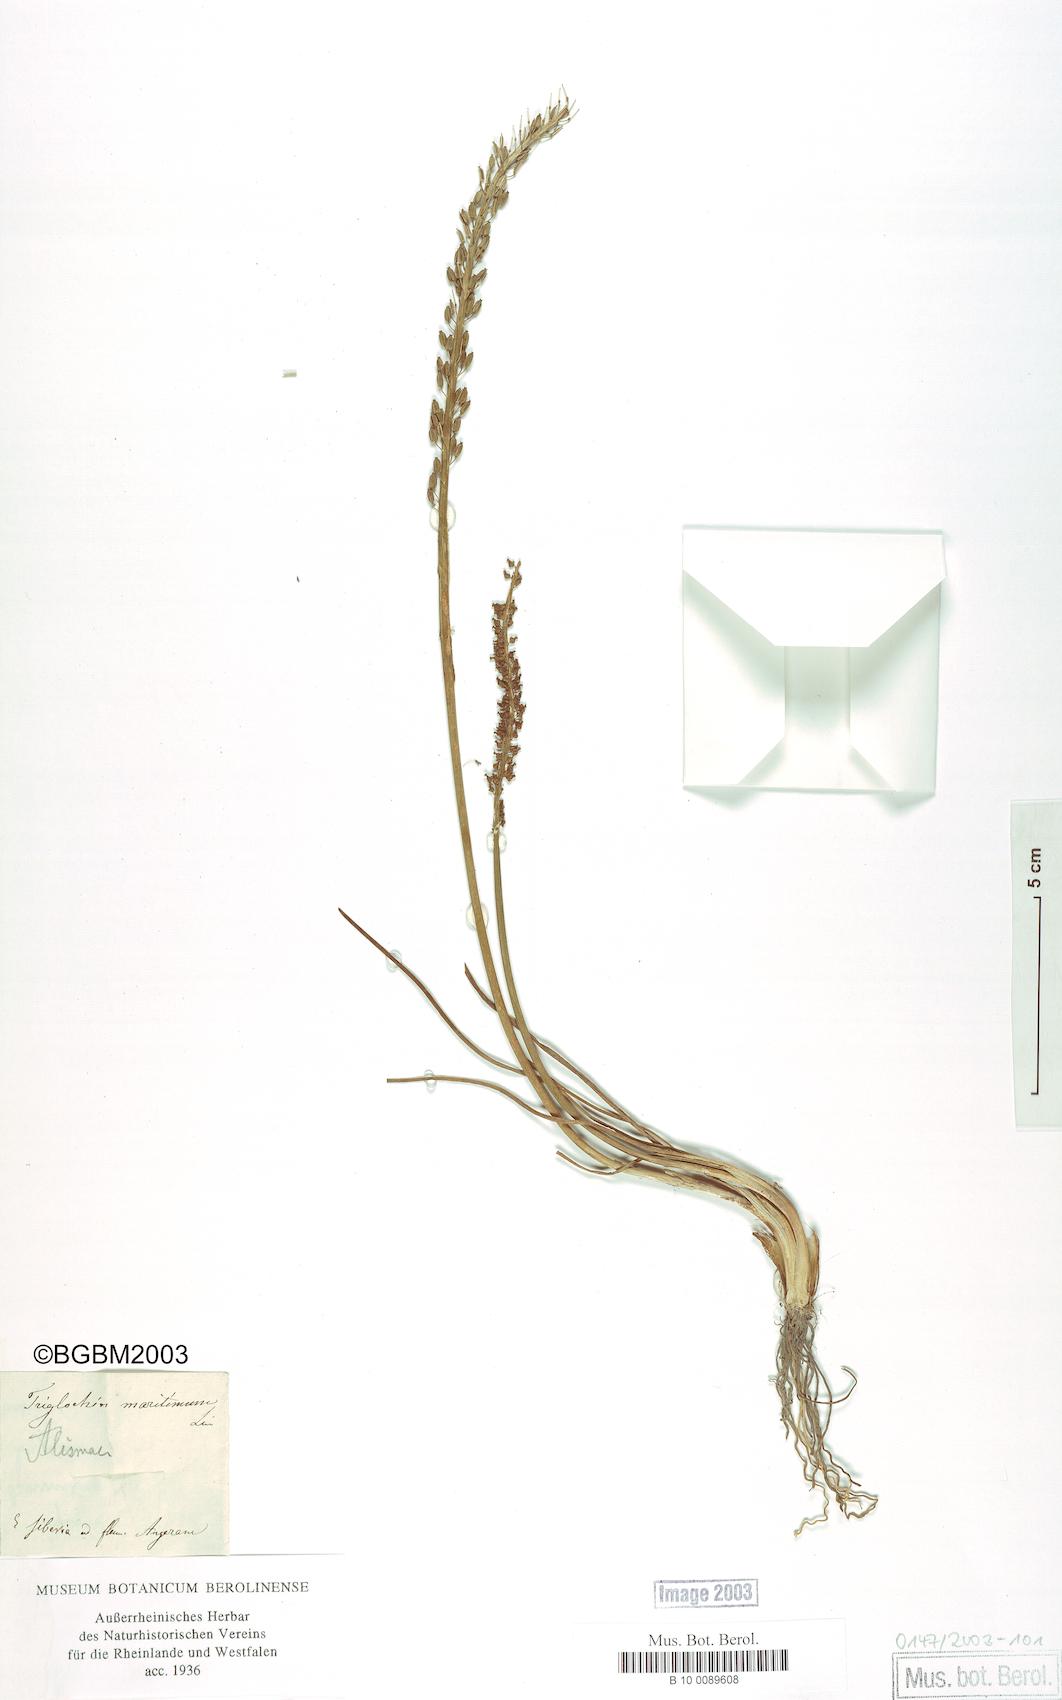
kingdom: Plantae
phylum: Tracheophyta
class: Liliopsida
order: Alismatales
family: Juncaginaceae
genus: Triglochin
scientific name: Triglochin maritima
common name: Sea arrowgrass
